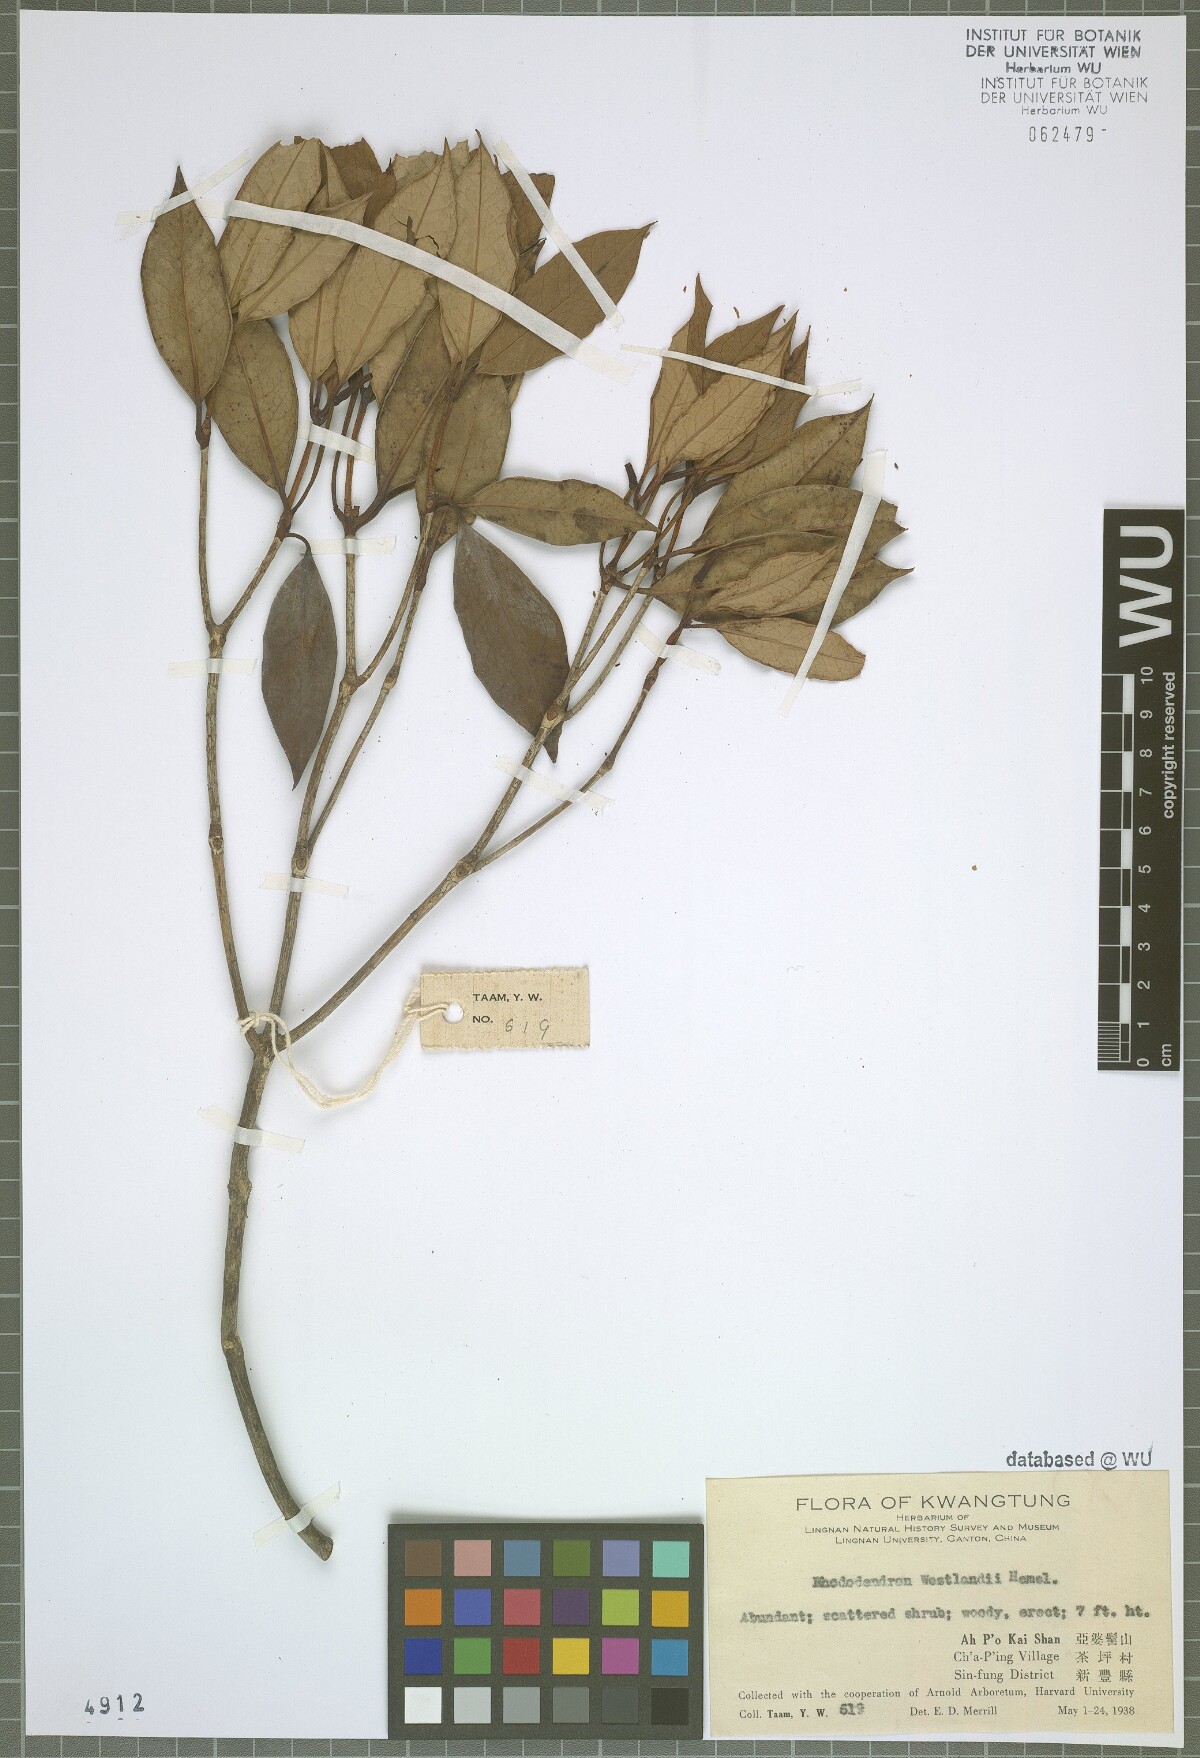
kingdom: Plantae
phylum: Tracheophyta
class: Magnoliopsida
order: Ericales
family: Ericaceae
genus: Rhododendron
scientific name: Rhododendron westlandii
